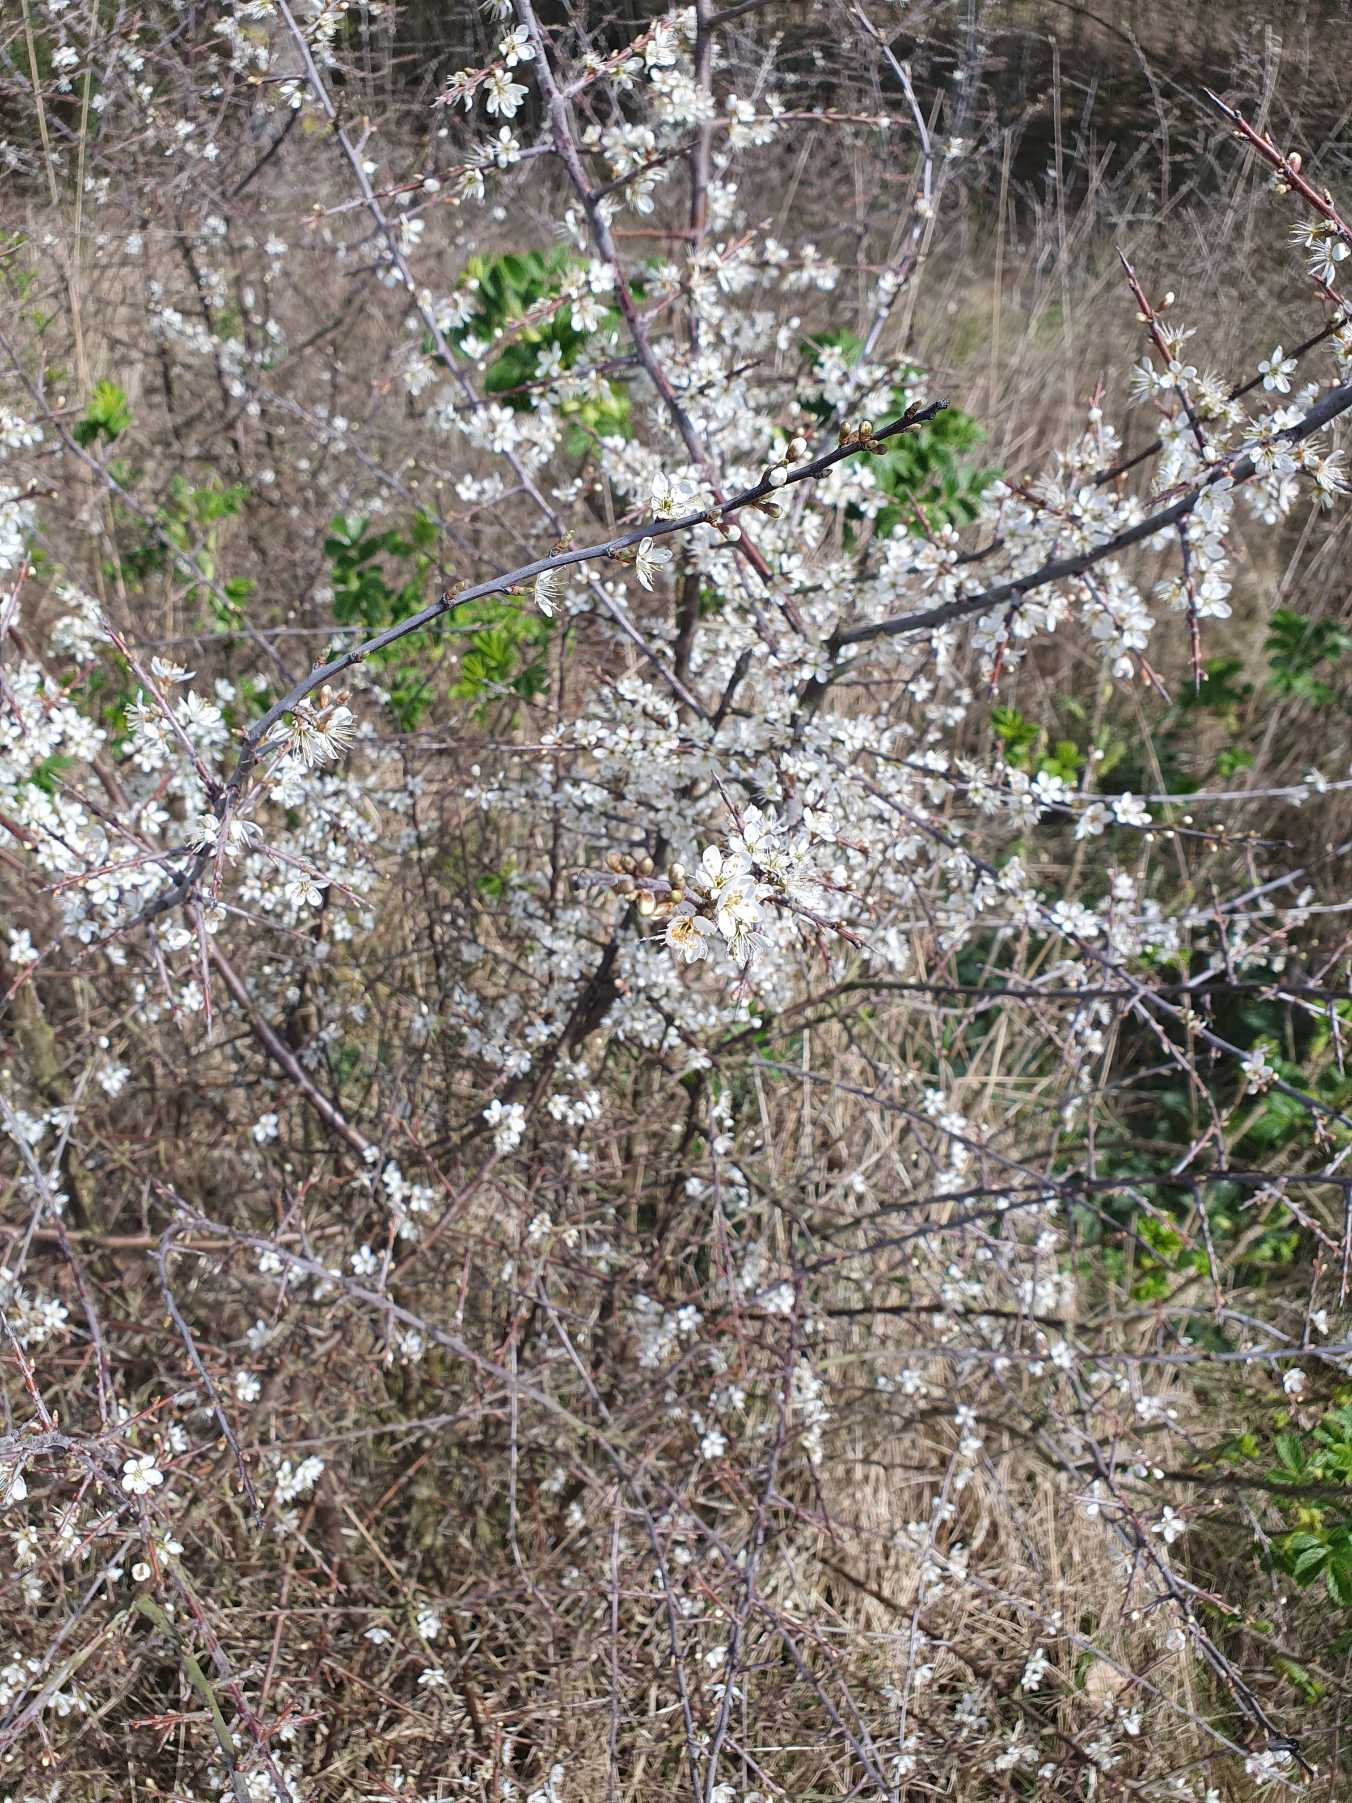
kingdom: Plantae
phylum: Tracheophyta
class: Magnoliopsida
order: Rosales
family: Rosaceae
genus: Prunus
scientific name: Prunus spinosa
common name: Slåen
